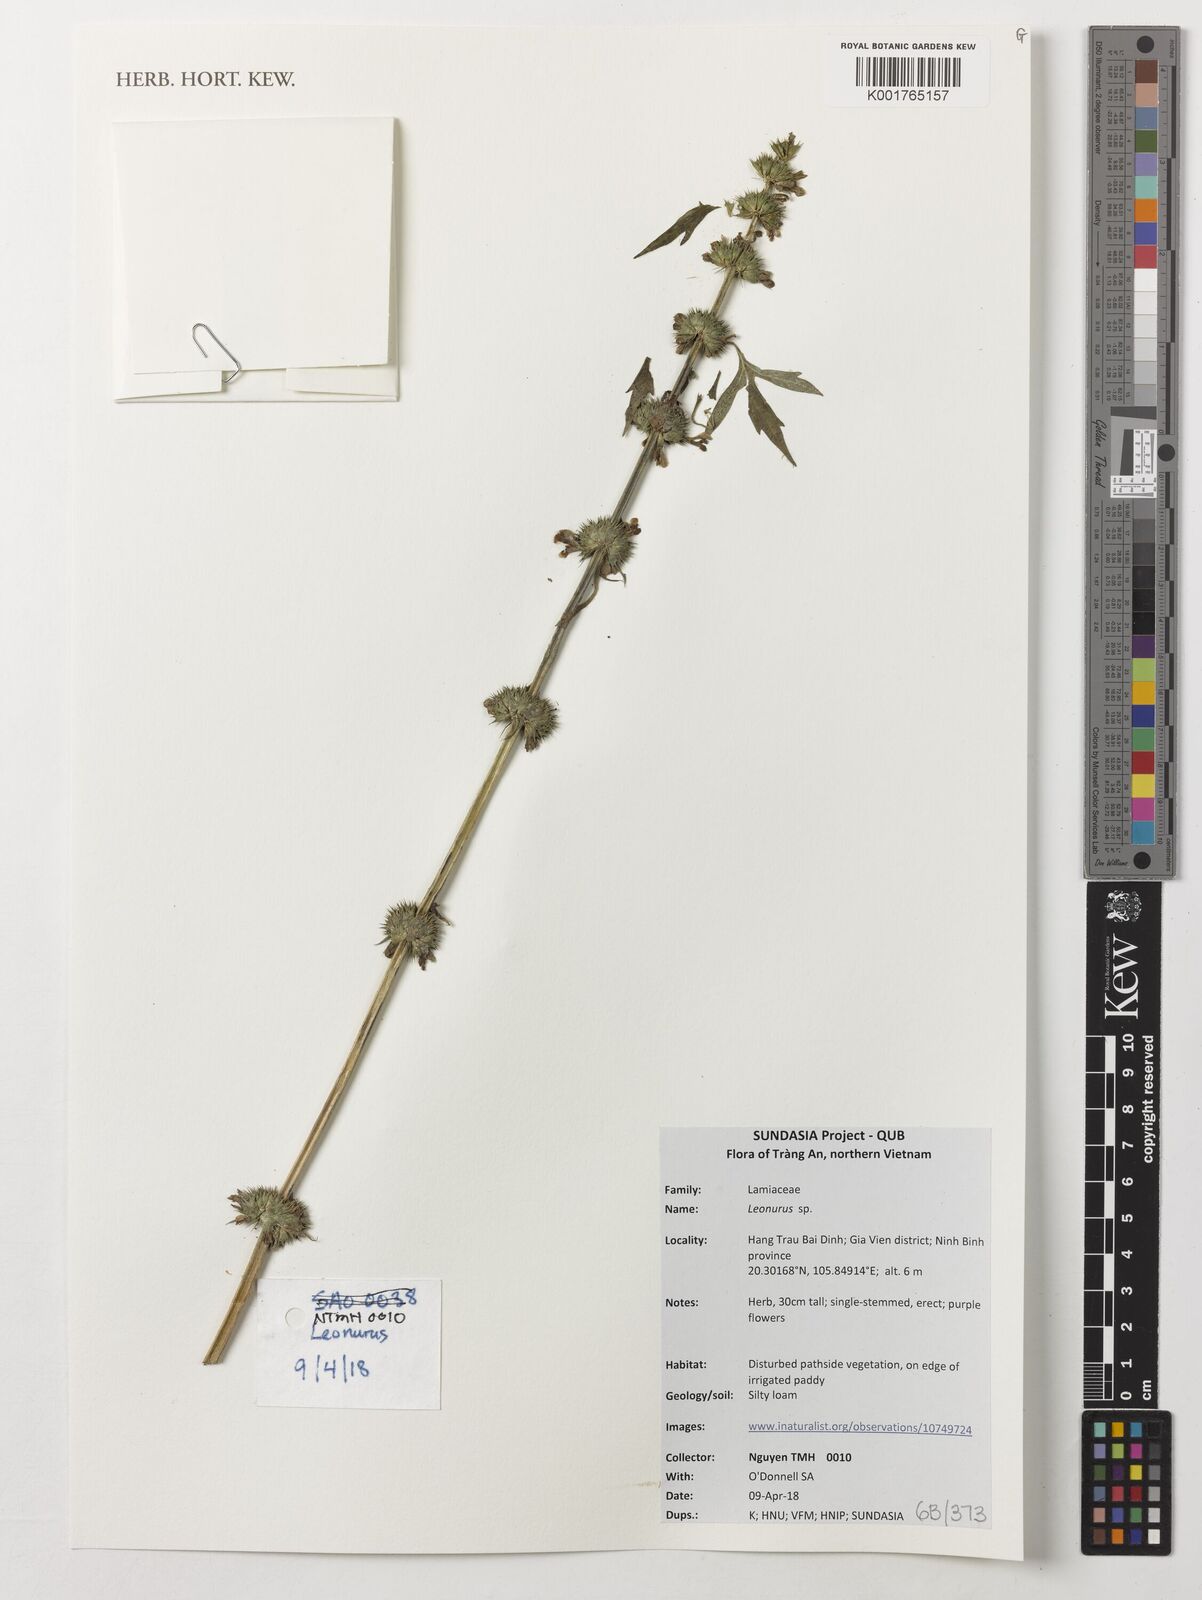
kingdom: Plantae
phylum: Tracheophyta
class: Magnoliopsida
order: Lamiales
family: Lamiaceae
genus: Leonurus
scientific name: Leonurus
